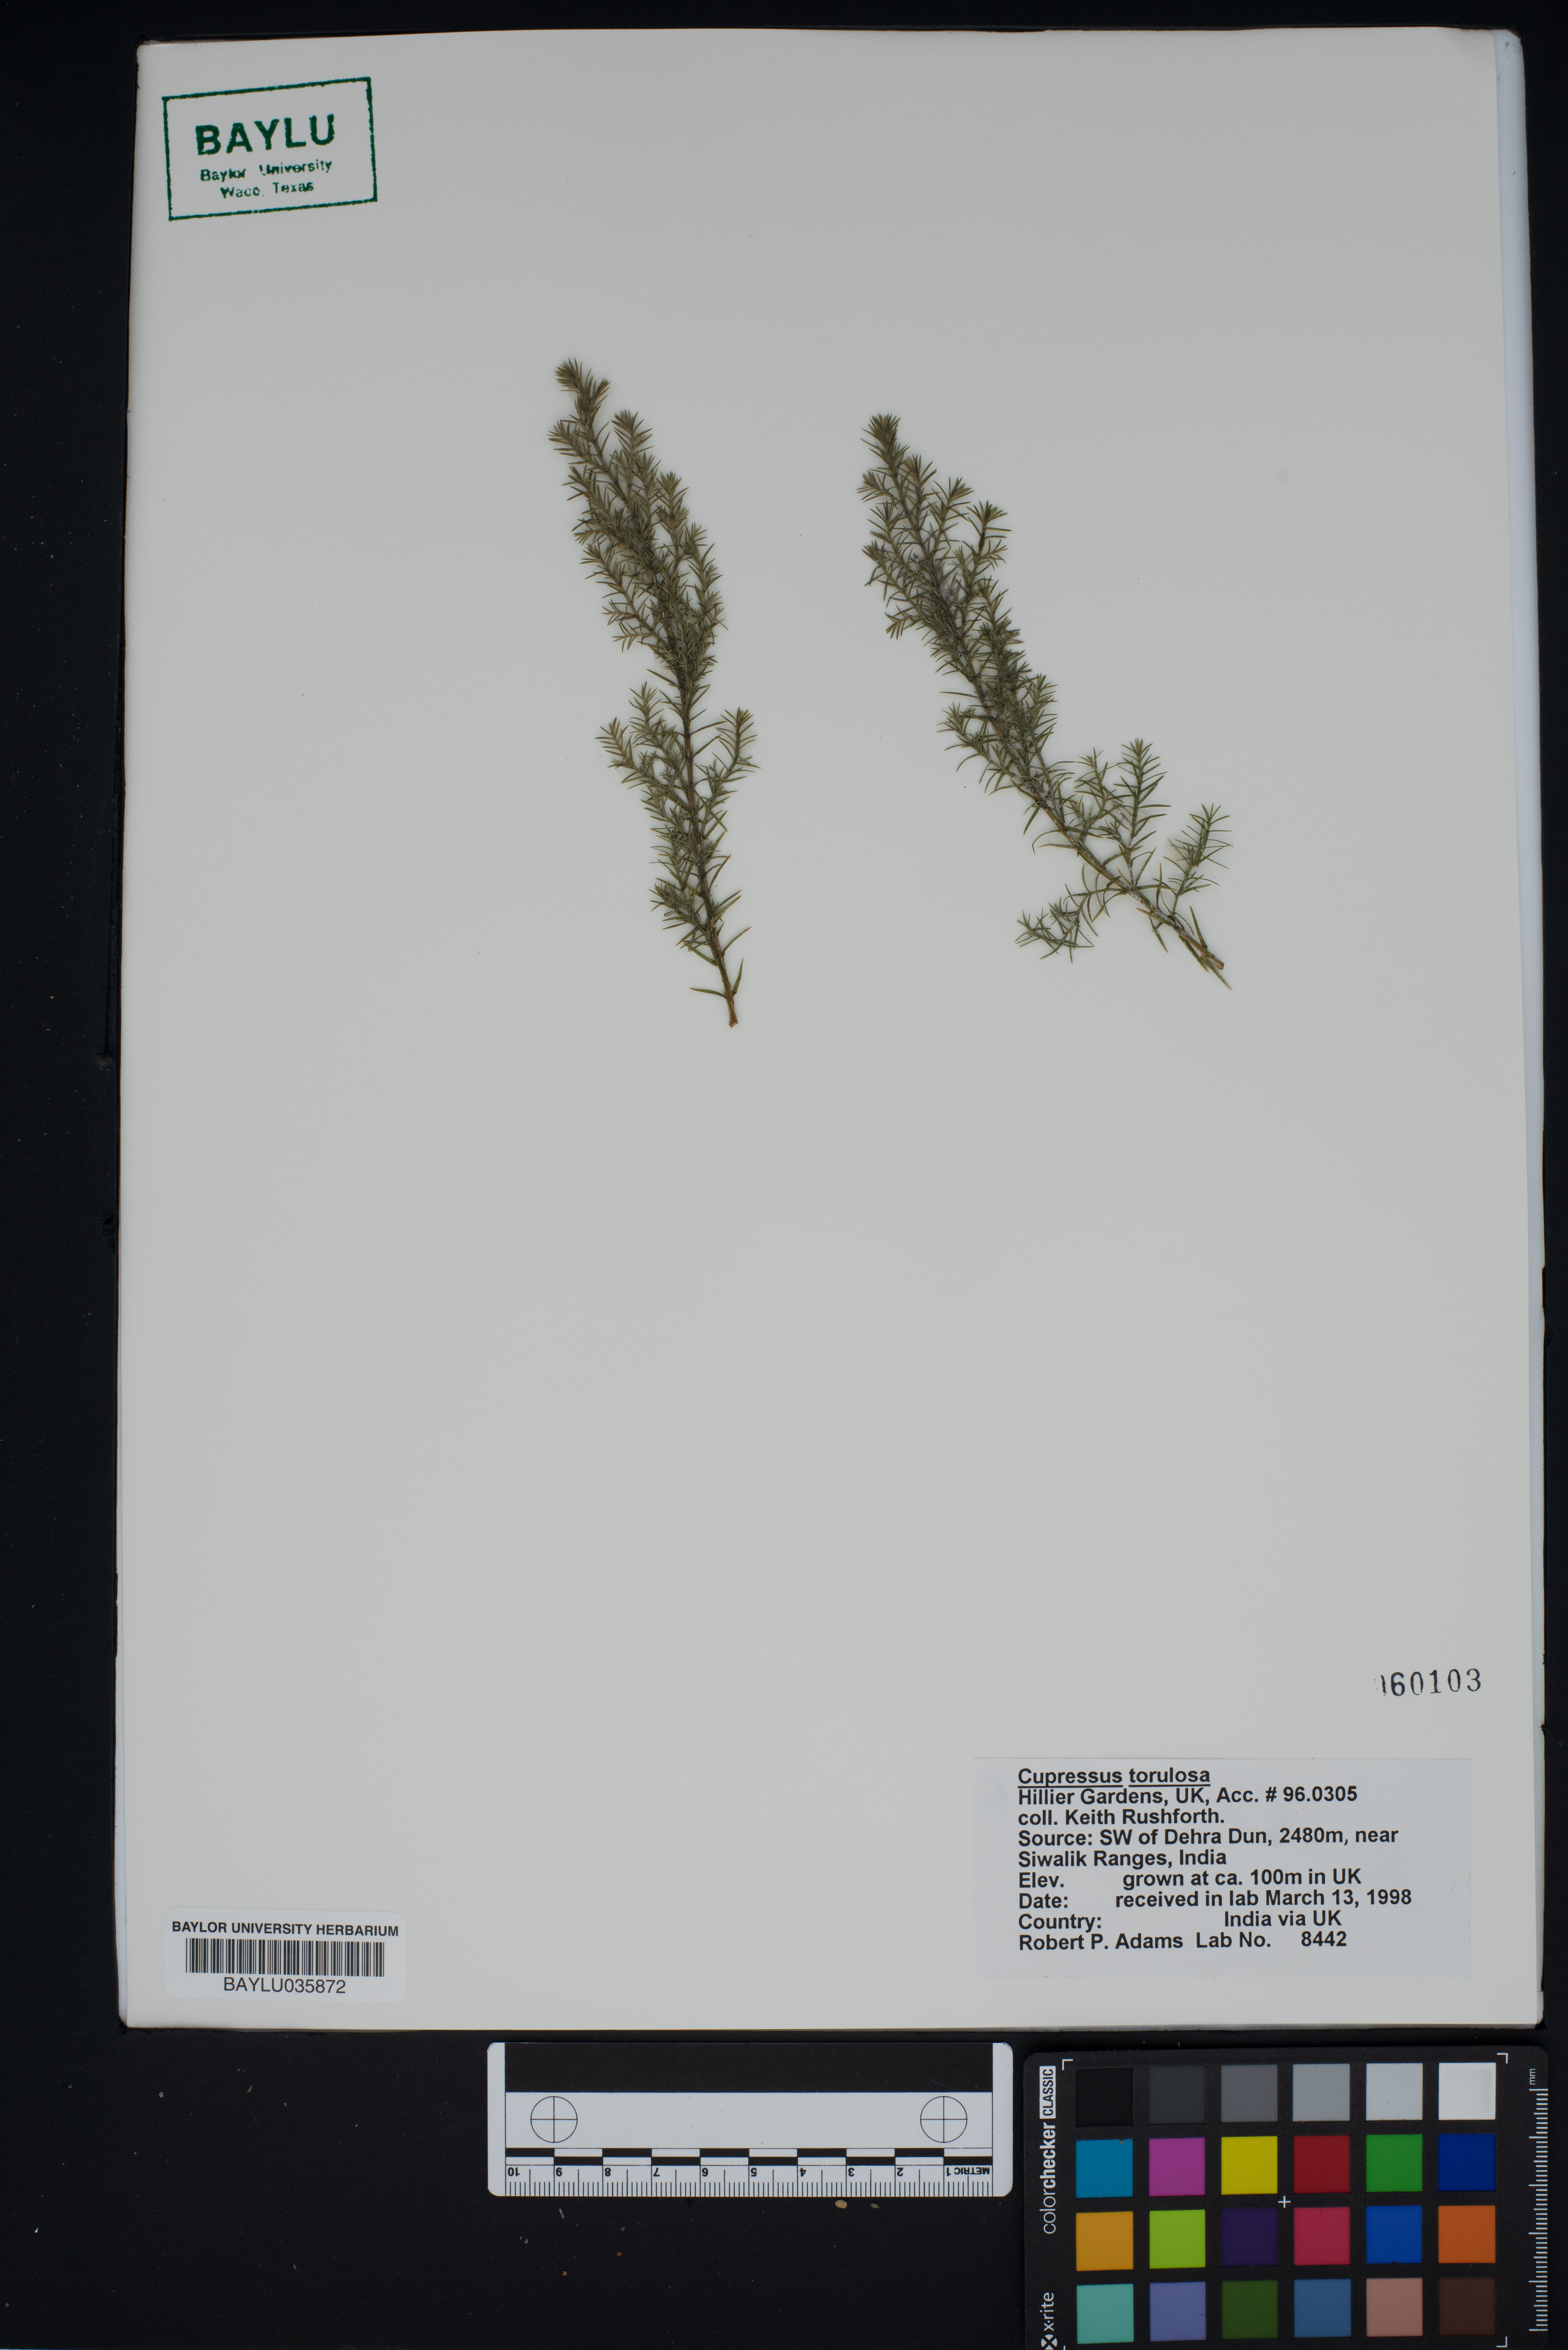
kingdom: Plantae
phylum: Tracheophyta
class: Pinopsida
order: Pinales
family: Cupressaceae
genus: Cupressus
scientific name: Cupressus torulosa
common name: Himalayan cypress
